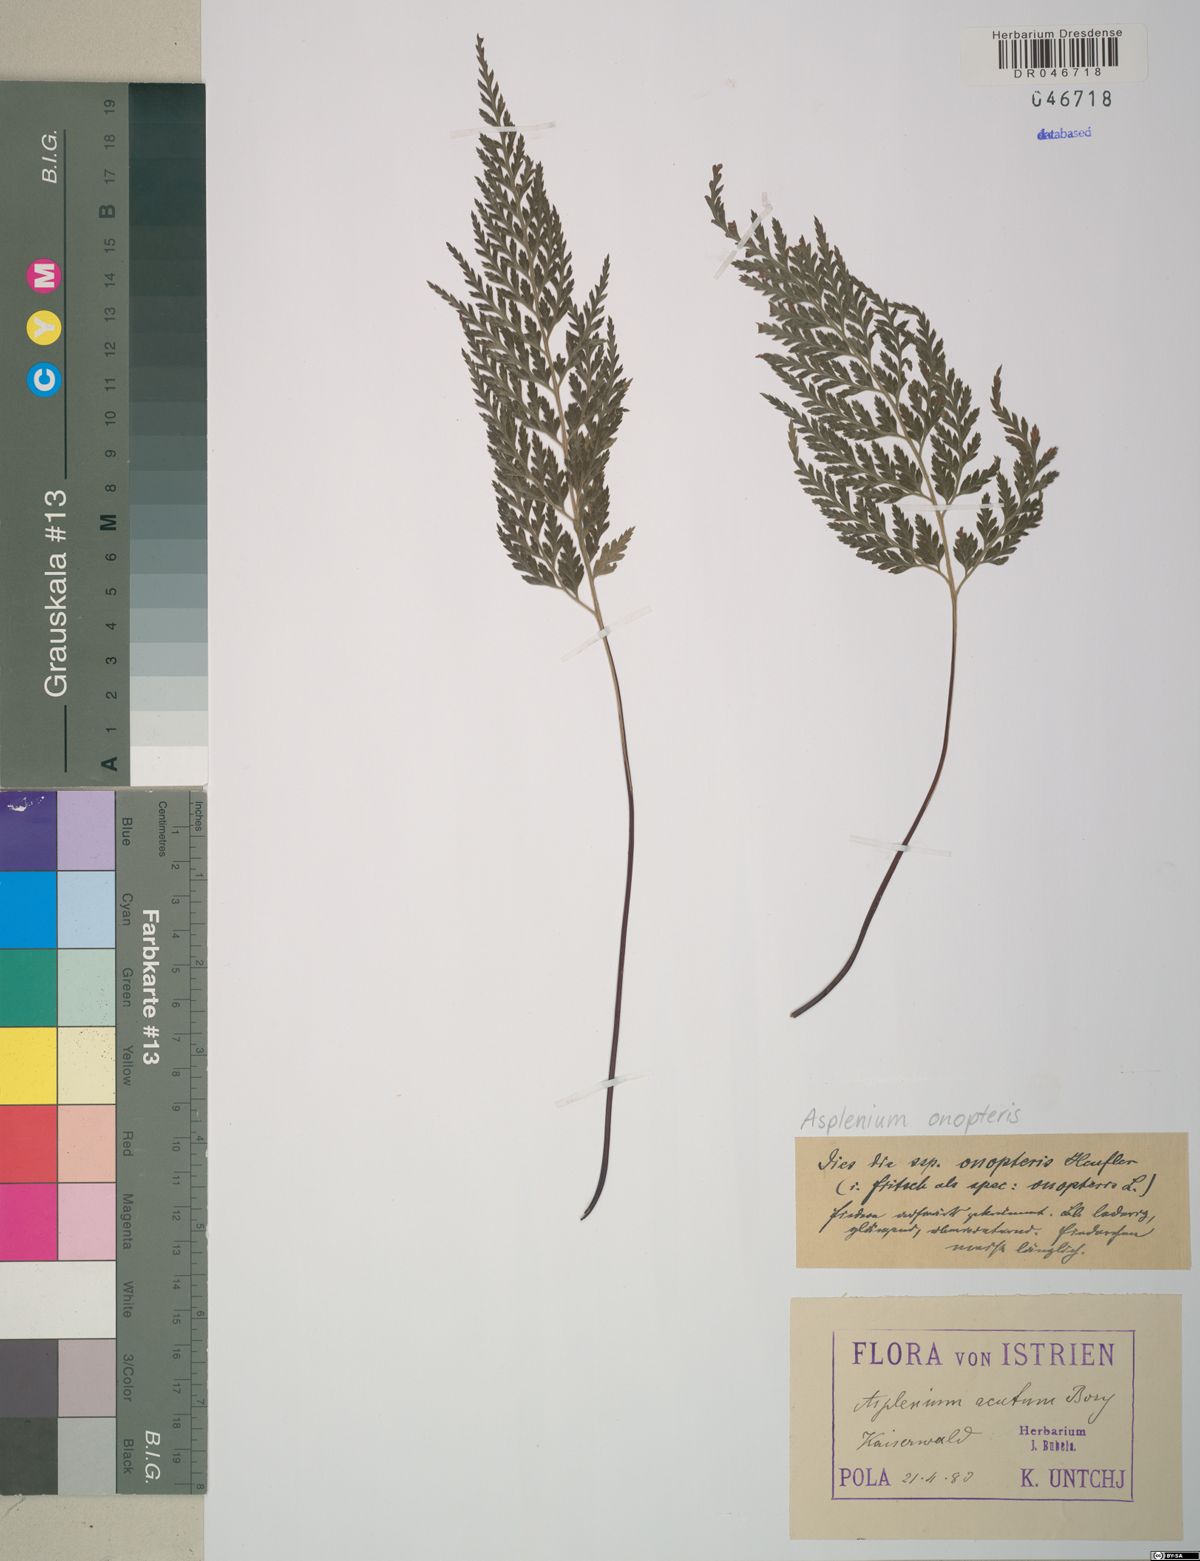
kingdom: Plantae
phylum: Tracheophyta
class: Polypodiopsida
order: Polypodiales
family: Aspleniaceae
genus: Asplenium
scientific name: Asplenium onopteris
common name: Irish spleenwort
